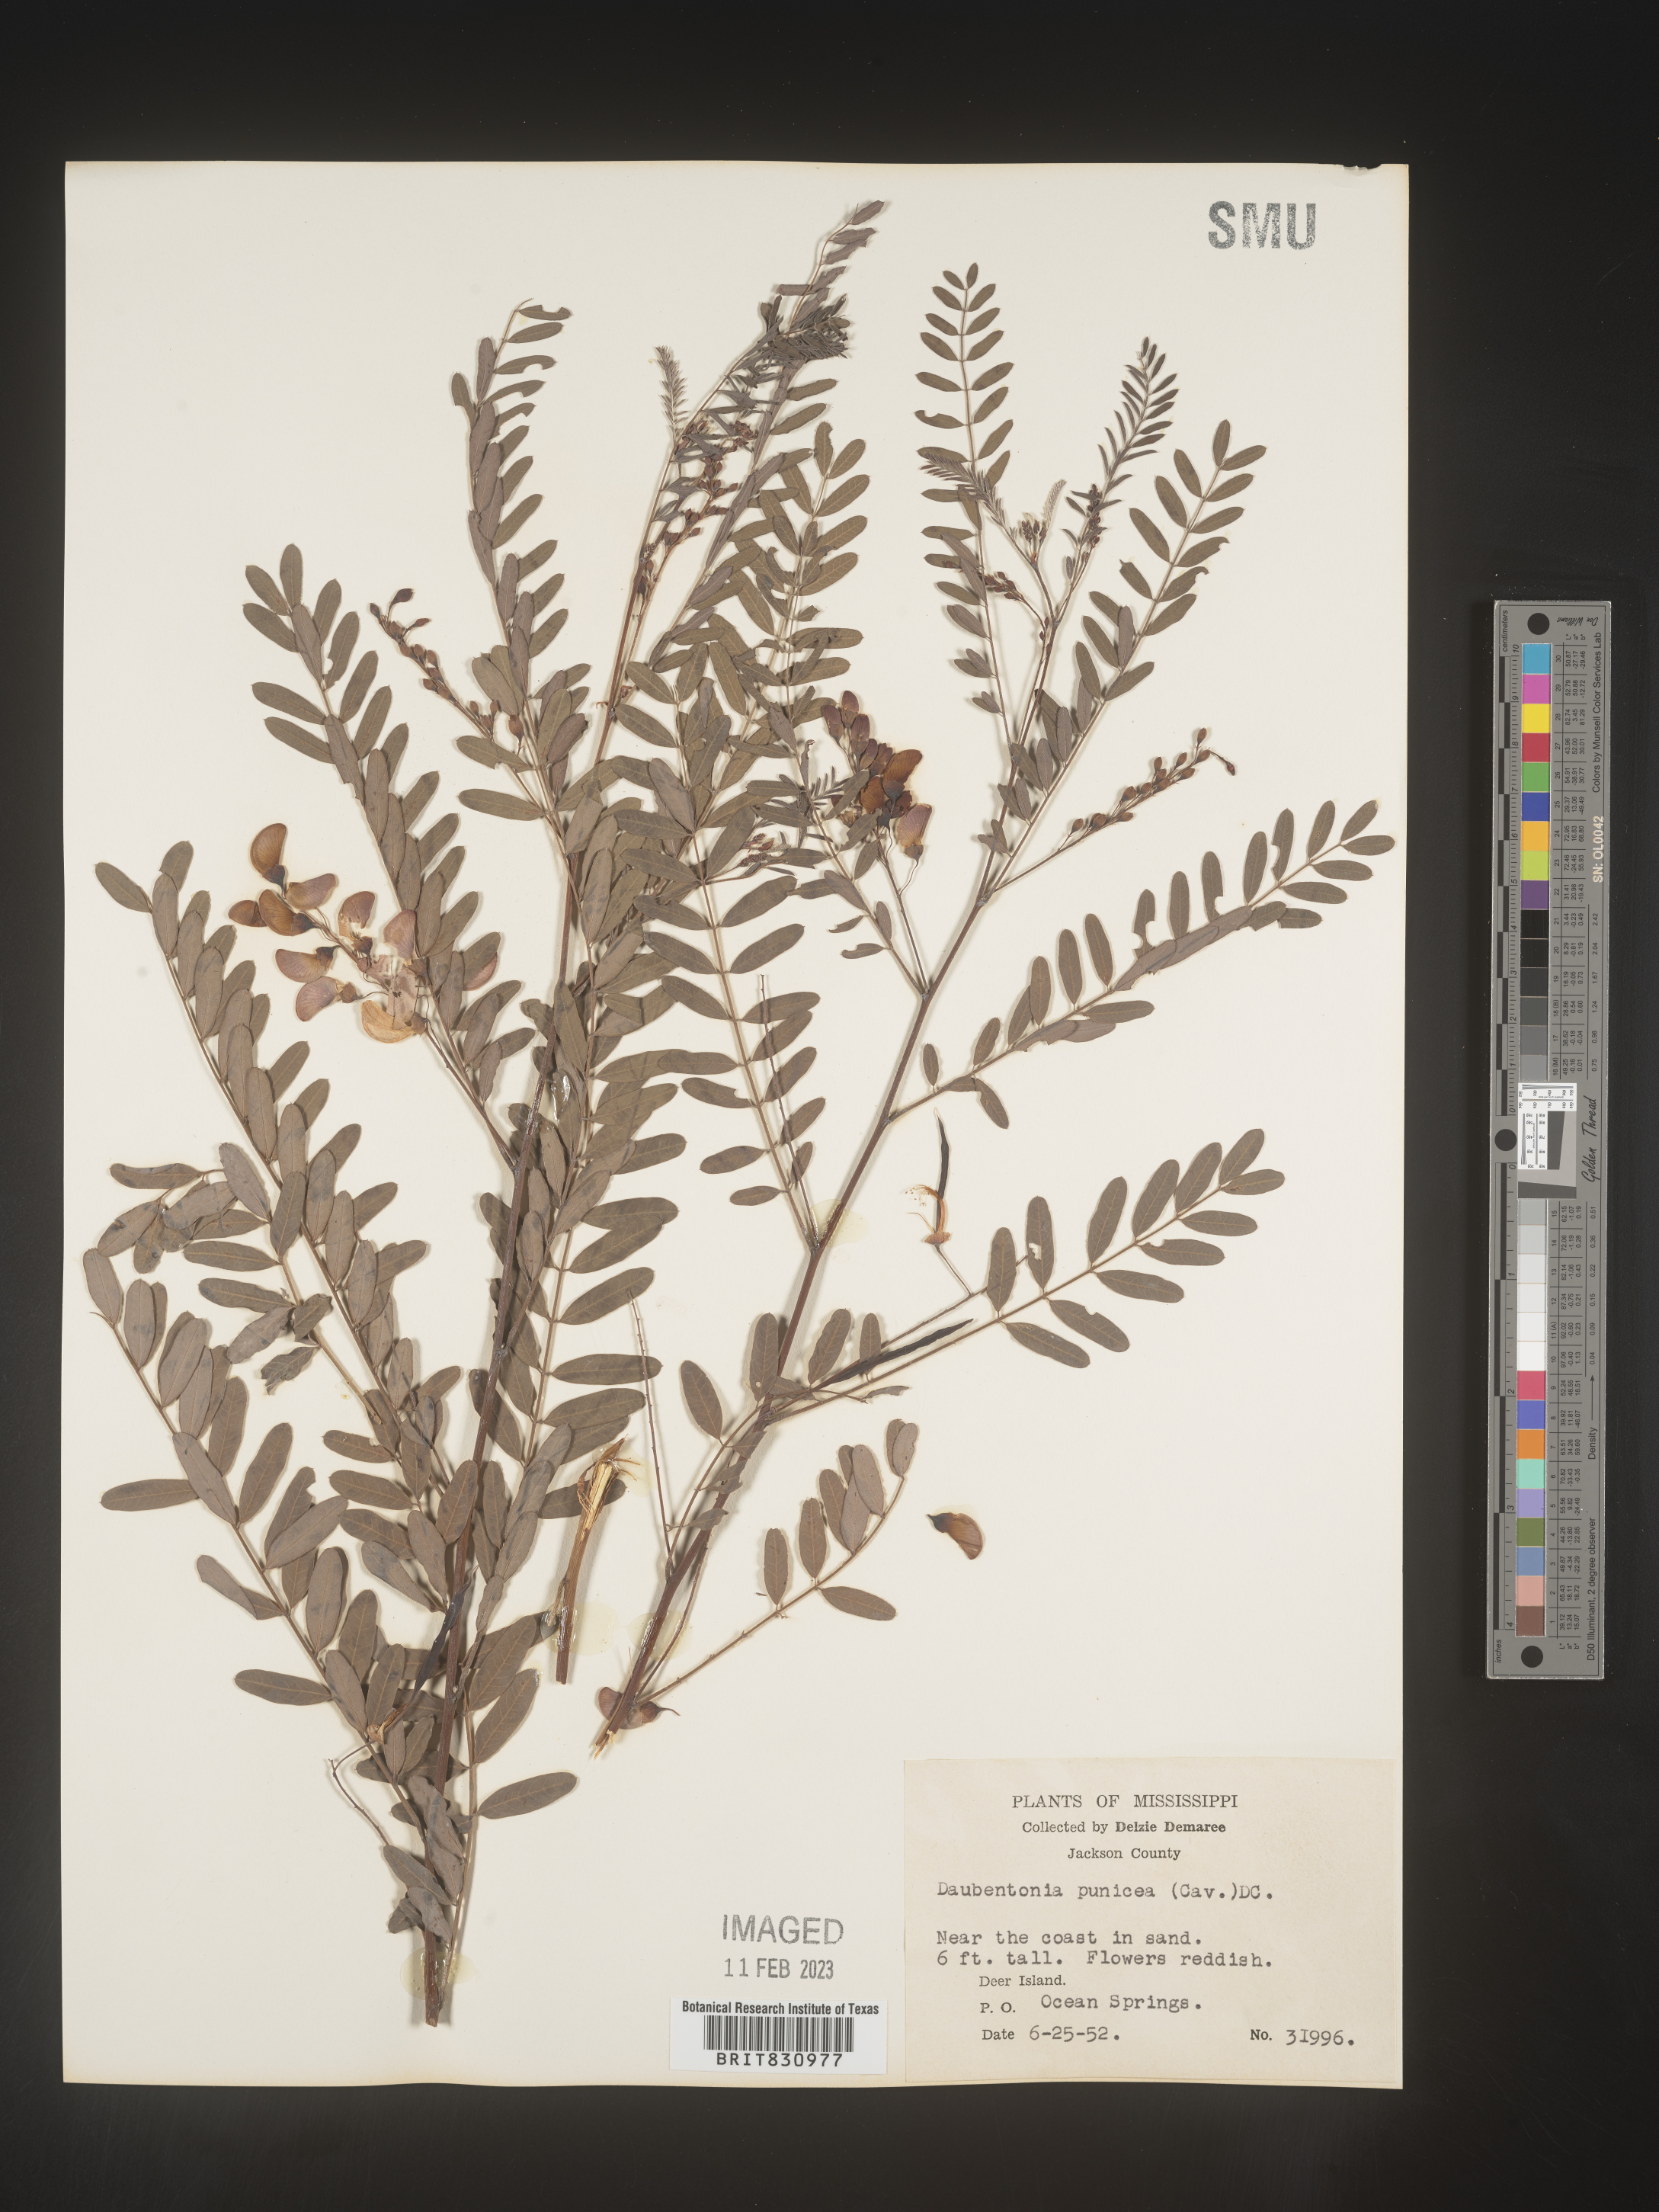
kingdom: Plantae
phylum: Tracheophyta
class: Magnoliopsida
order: Fabales
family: Fabaceae
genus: Sesbania
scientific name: Sesbania punicea
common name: Rattlebox
